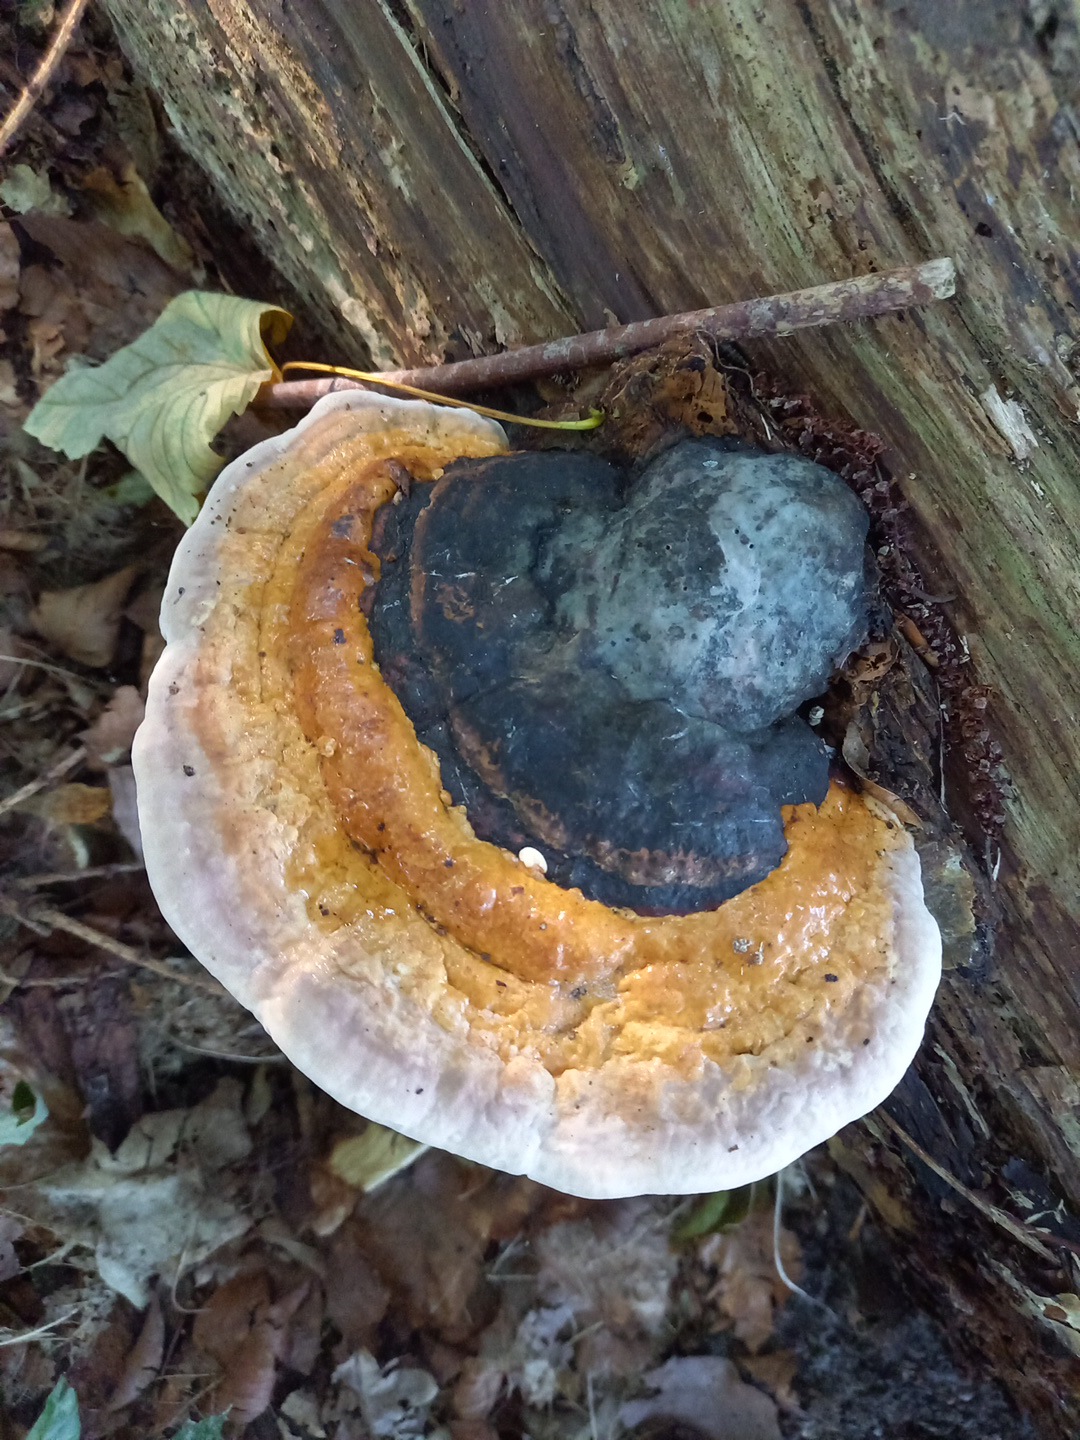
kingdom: Fungi
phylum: Basidiomycota
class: Agaricomycetes
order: Polyporales
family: Fomitopsidaceae
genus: Fomitopsis
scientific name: Fomitopsis pinicola
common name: randbæltet hovporesvamp
